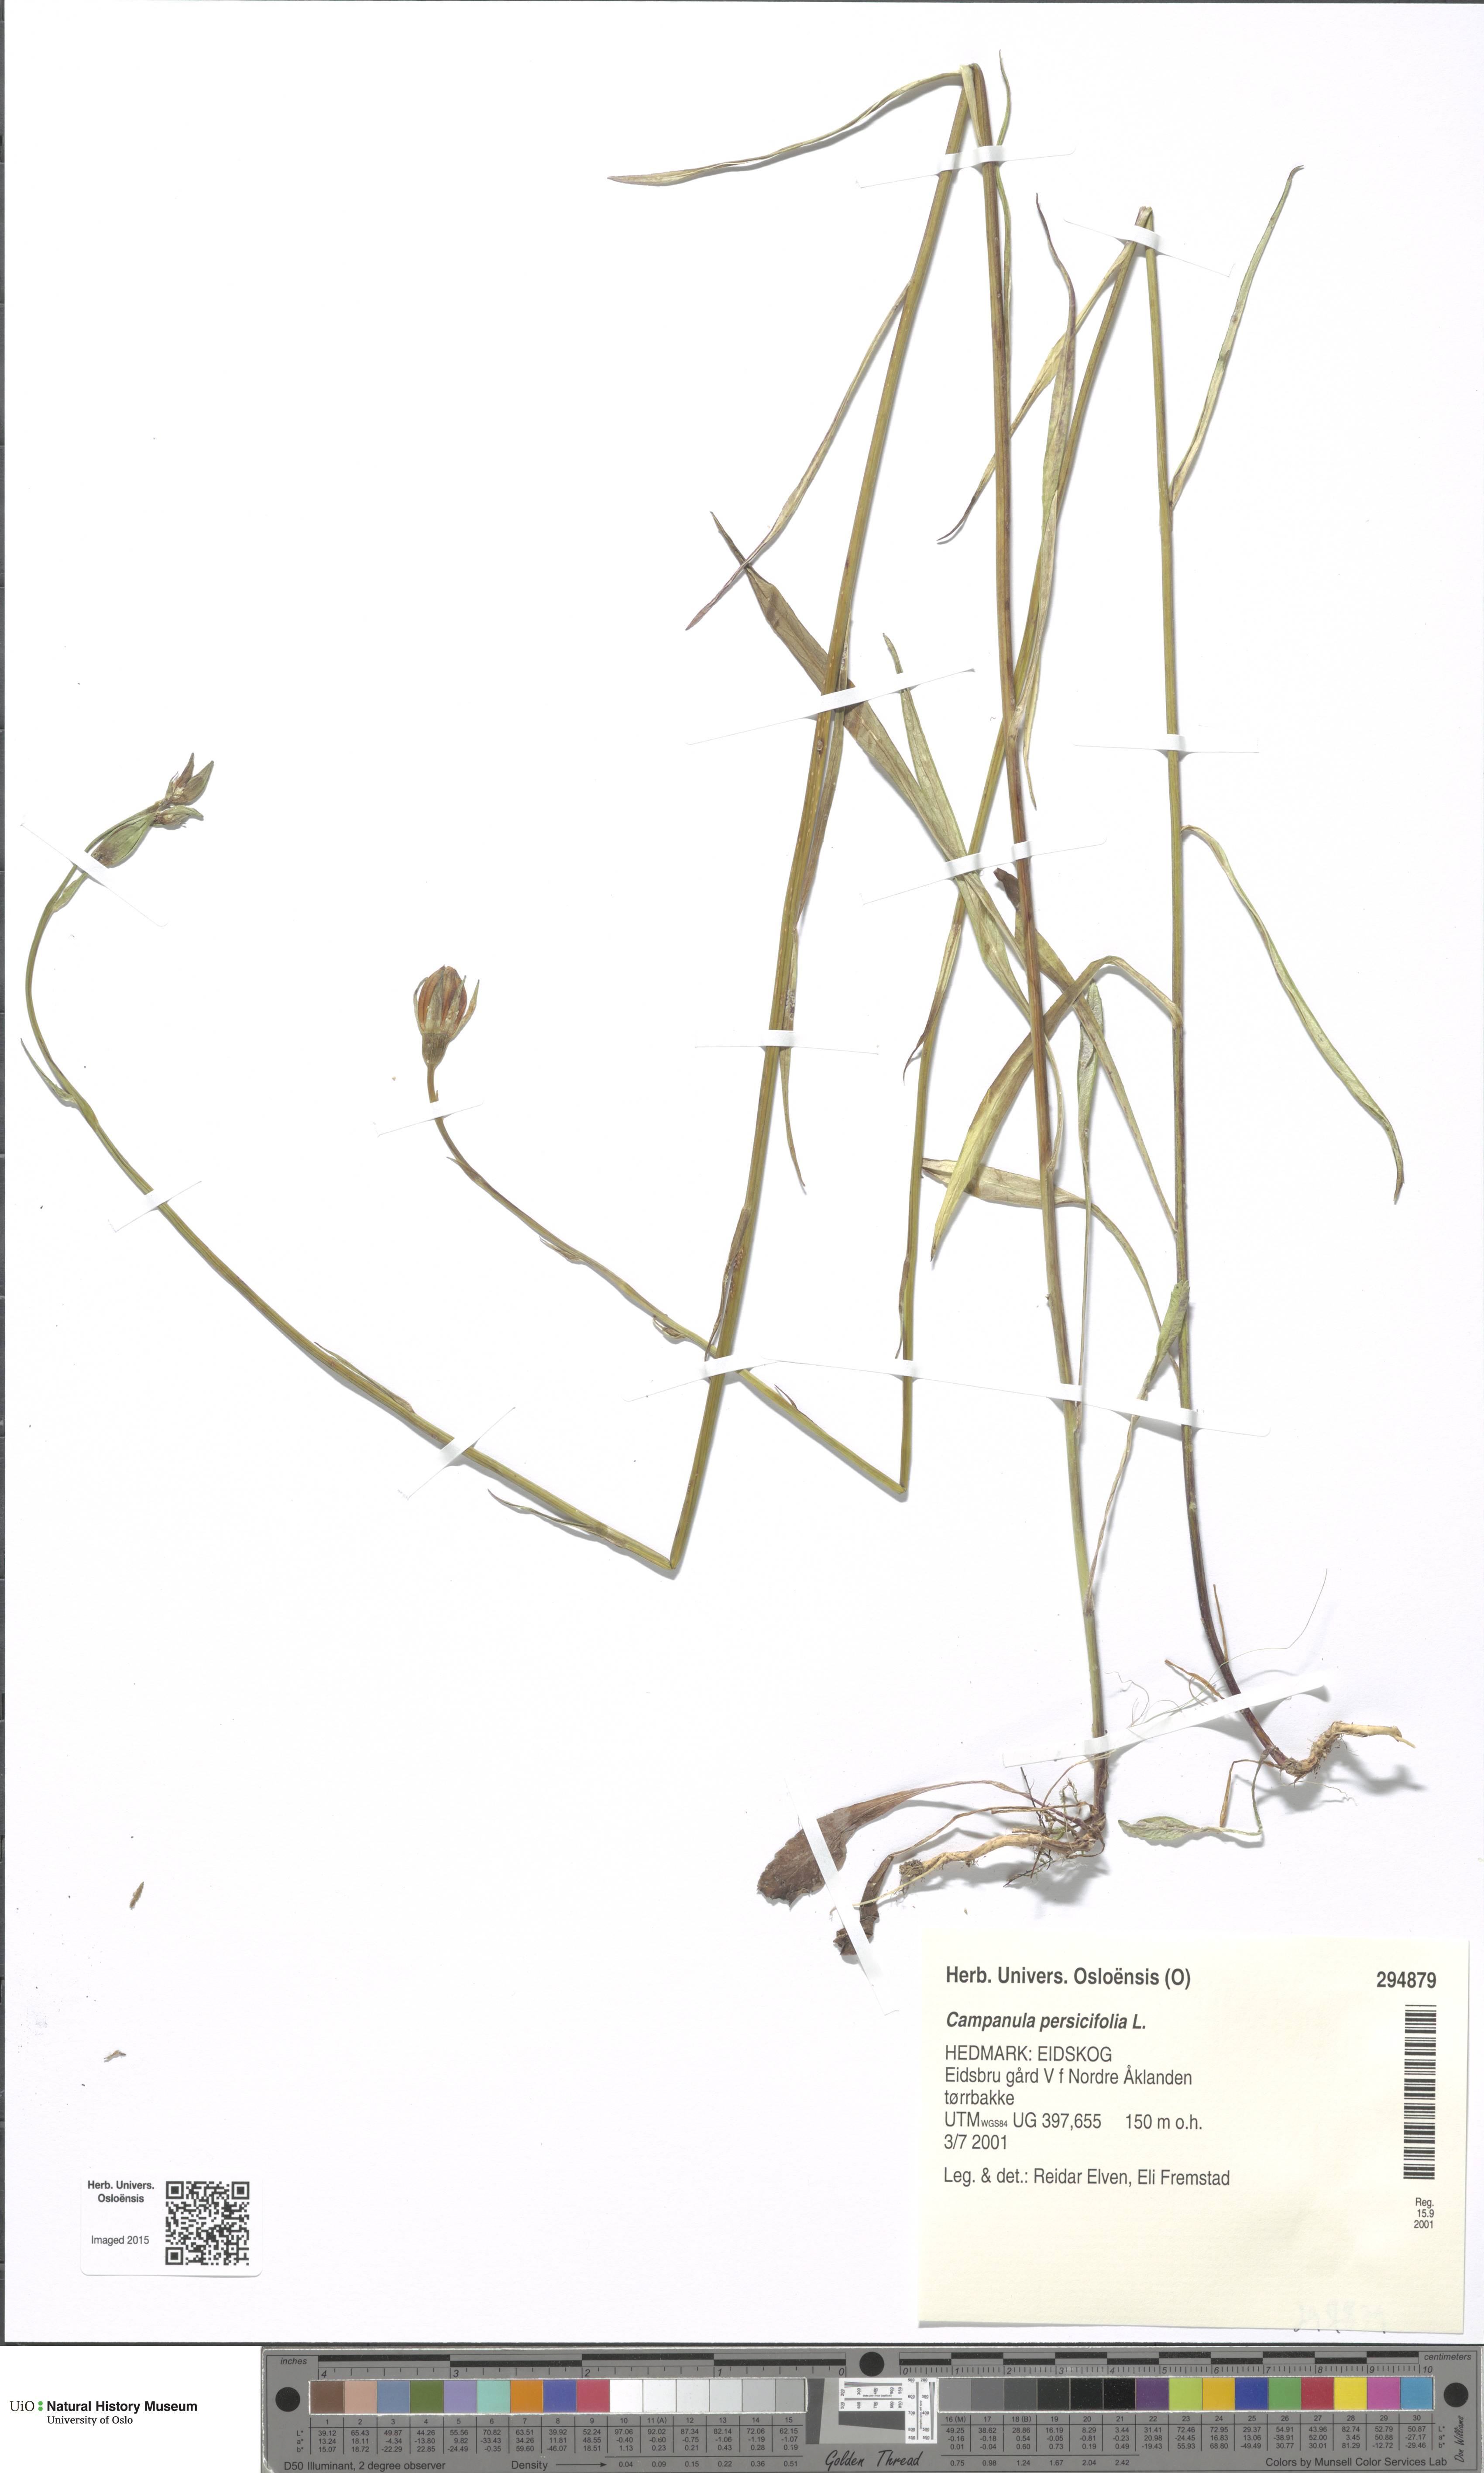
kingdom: Plantae
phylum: Tracheophyta
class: Magnoliopsida
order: Asterales
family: Campanulaceae
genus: Campanula
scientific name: Campanula persicifolia
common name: Peach-leaved bellflower
